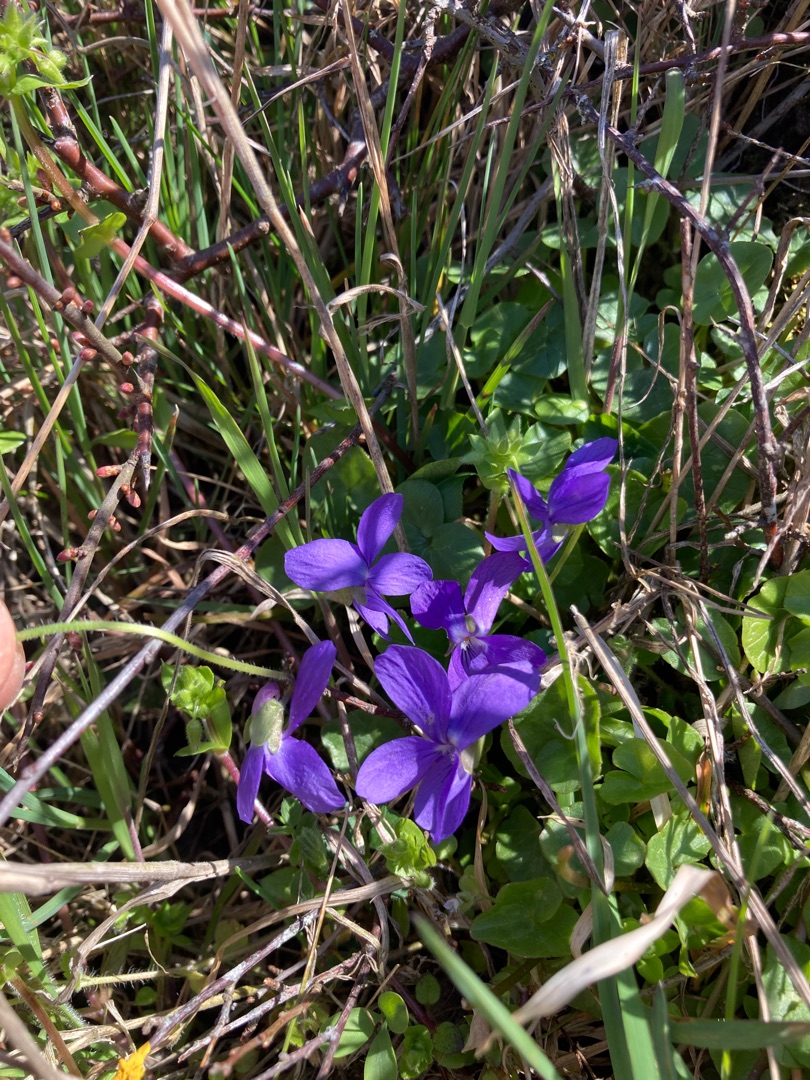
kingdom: Plantae
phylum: Tracheophyta
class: Magnoliopsida
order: Malpighiales
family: Violaceae
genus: Viola
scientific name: Viola odorata
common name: Marts-viol
